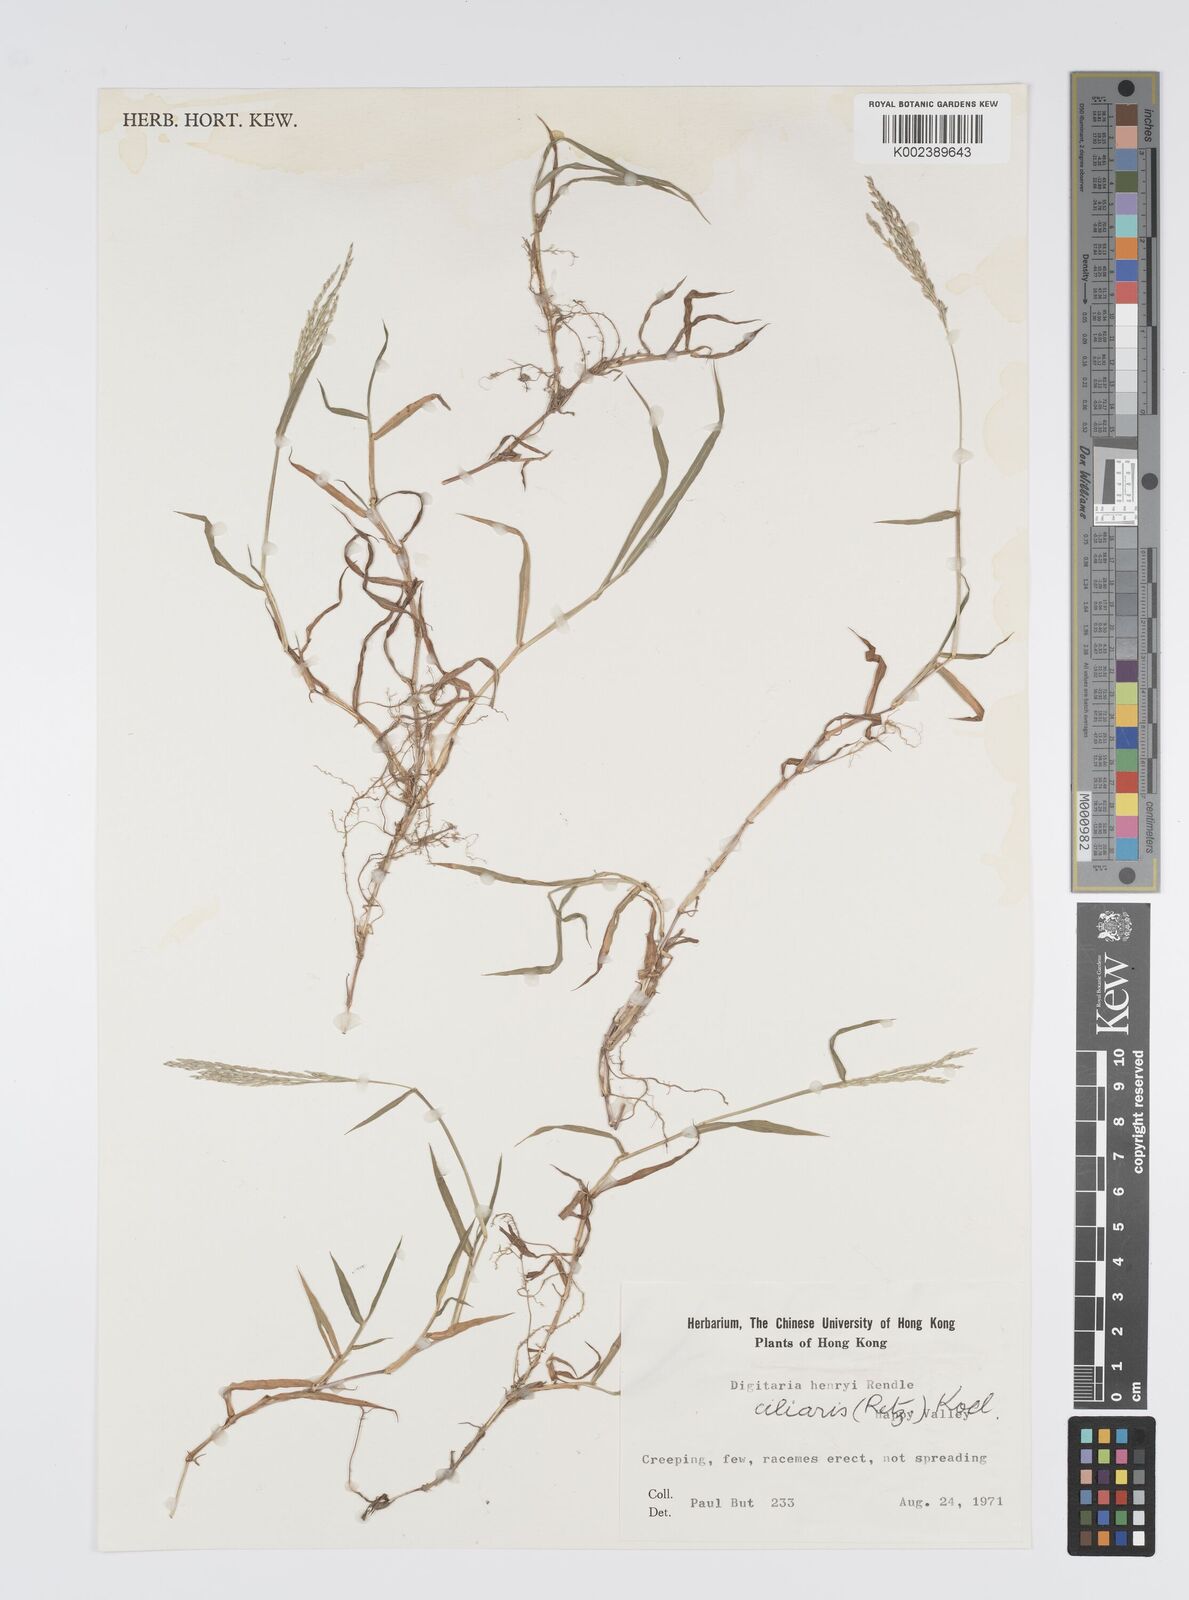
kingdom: Plantae
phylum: Tracheophyta
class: Liliopsida
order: Poales
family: Poaceae
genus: Digitaria
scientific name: Digitaria ciliaris
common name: Tropical finger-grass
